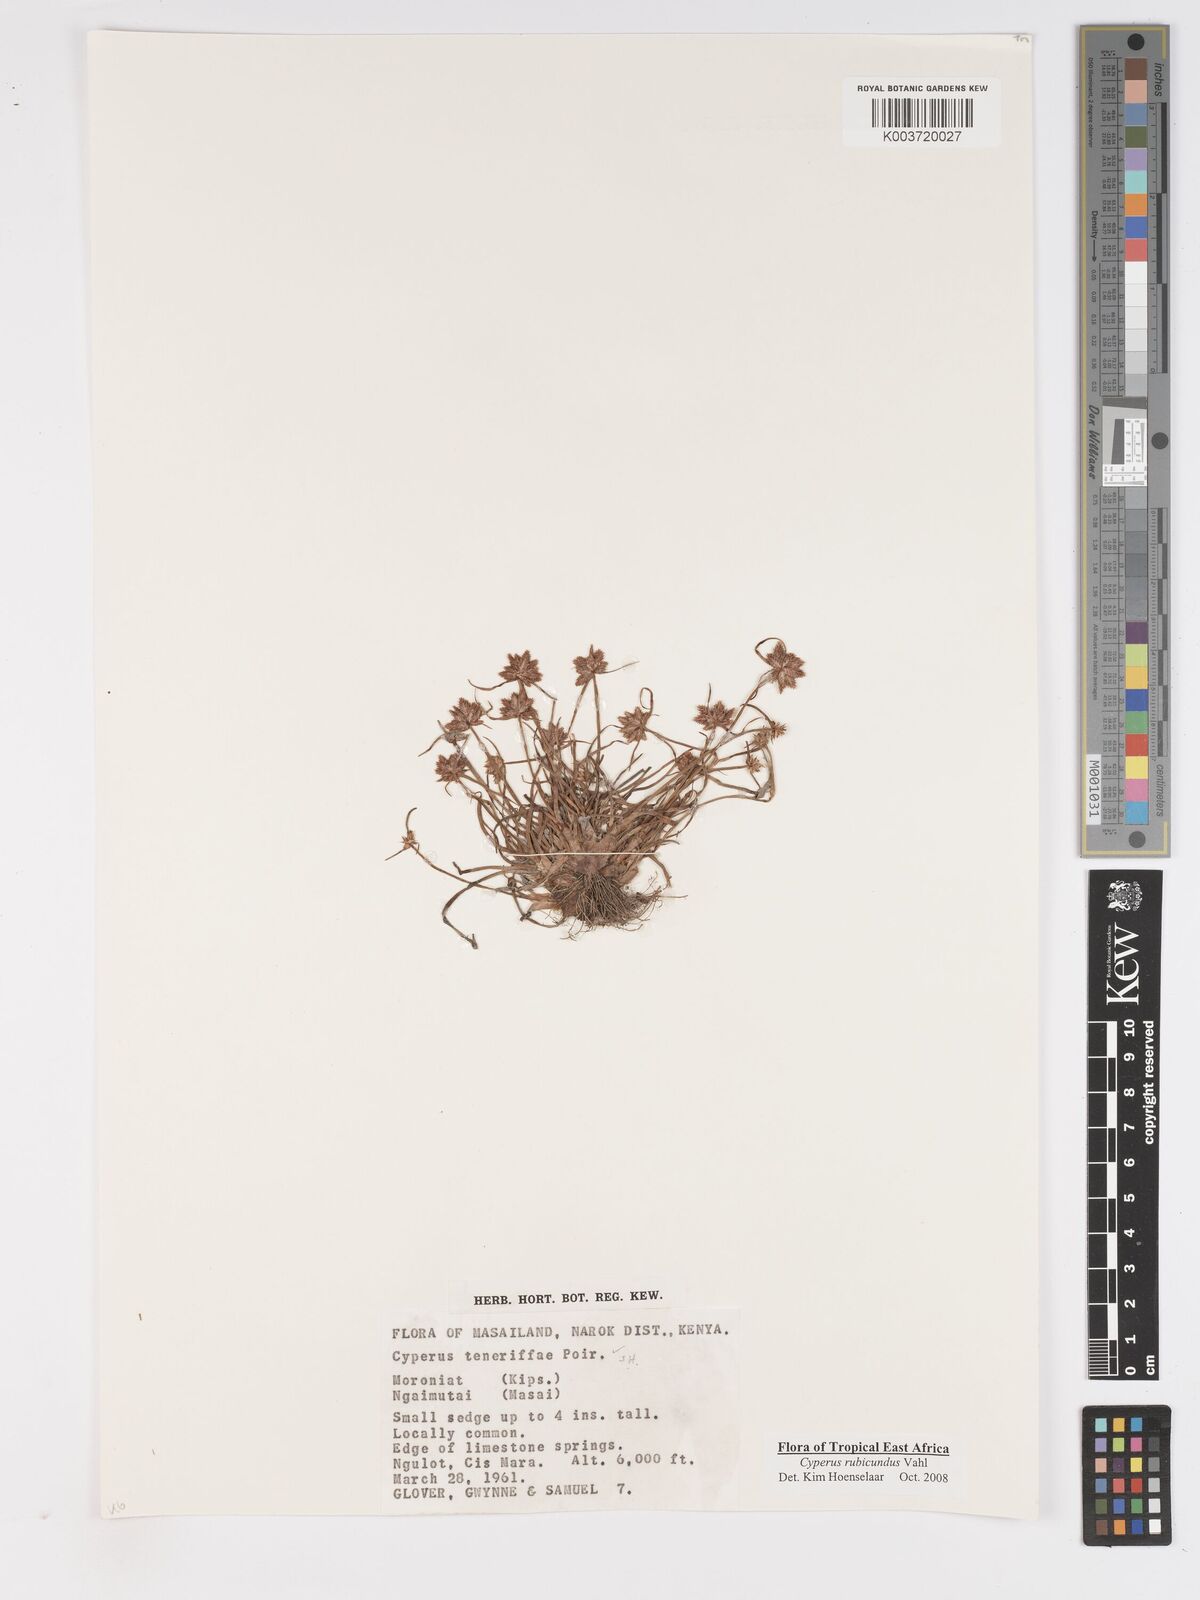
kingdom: Plantae
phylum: Tracheophyta
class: Liliopsida
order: Poales
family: Cyperaceae
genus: Cyperus
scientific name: Cyperus rubicundus
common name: Coco-grass
